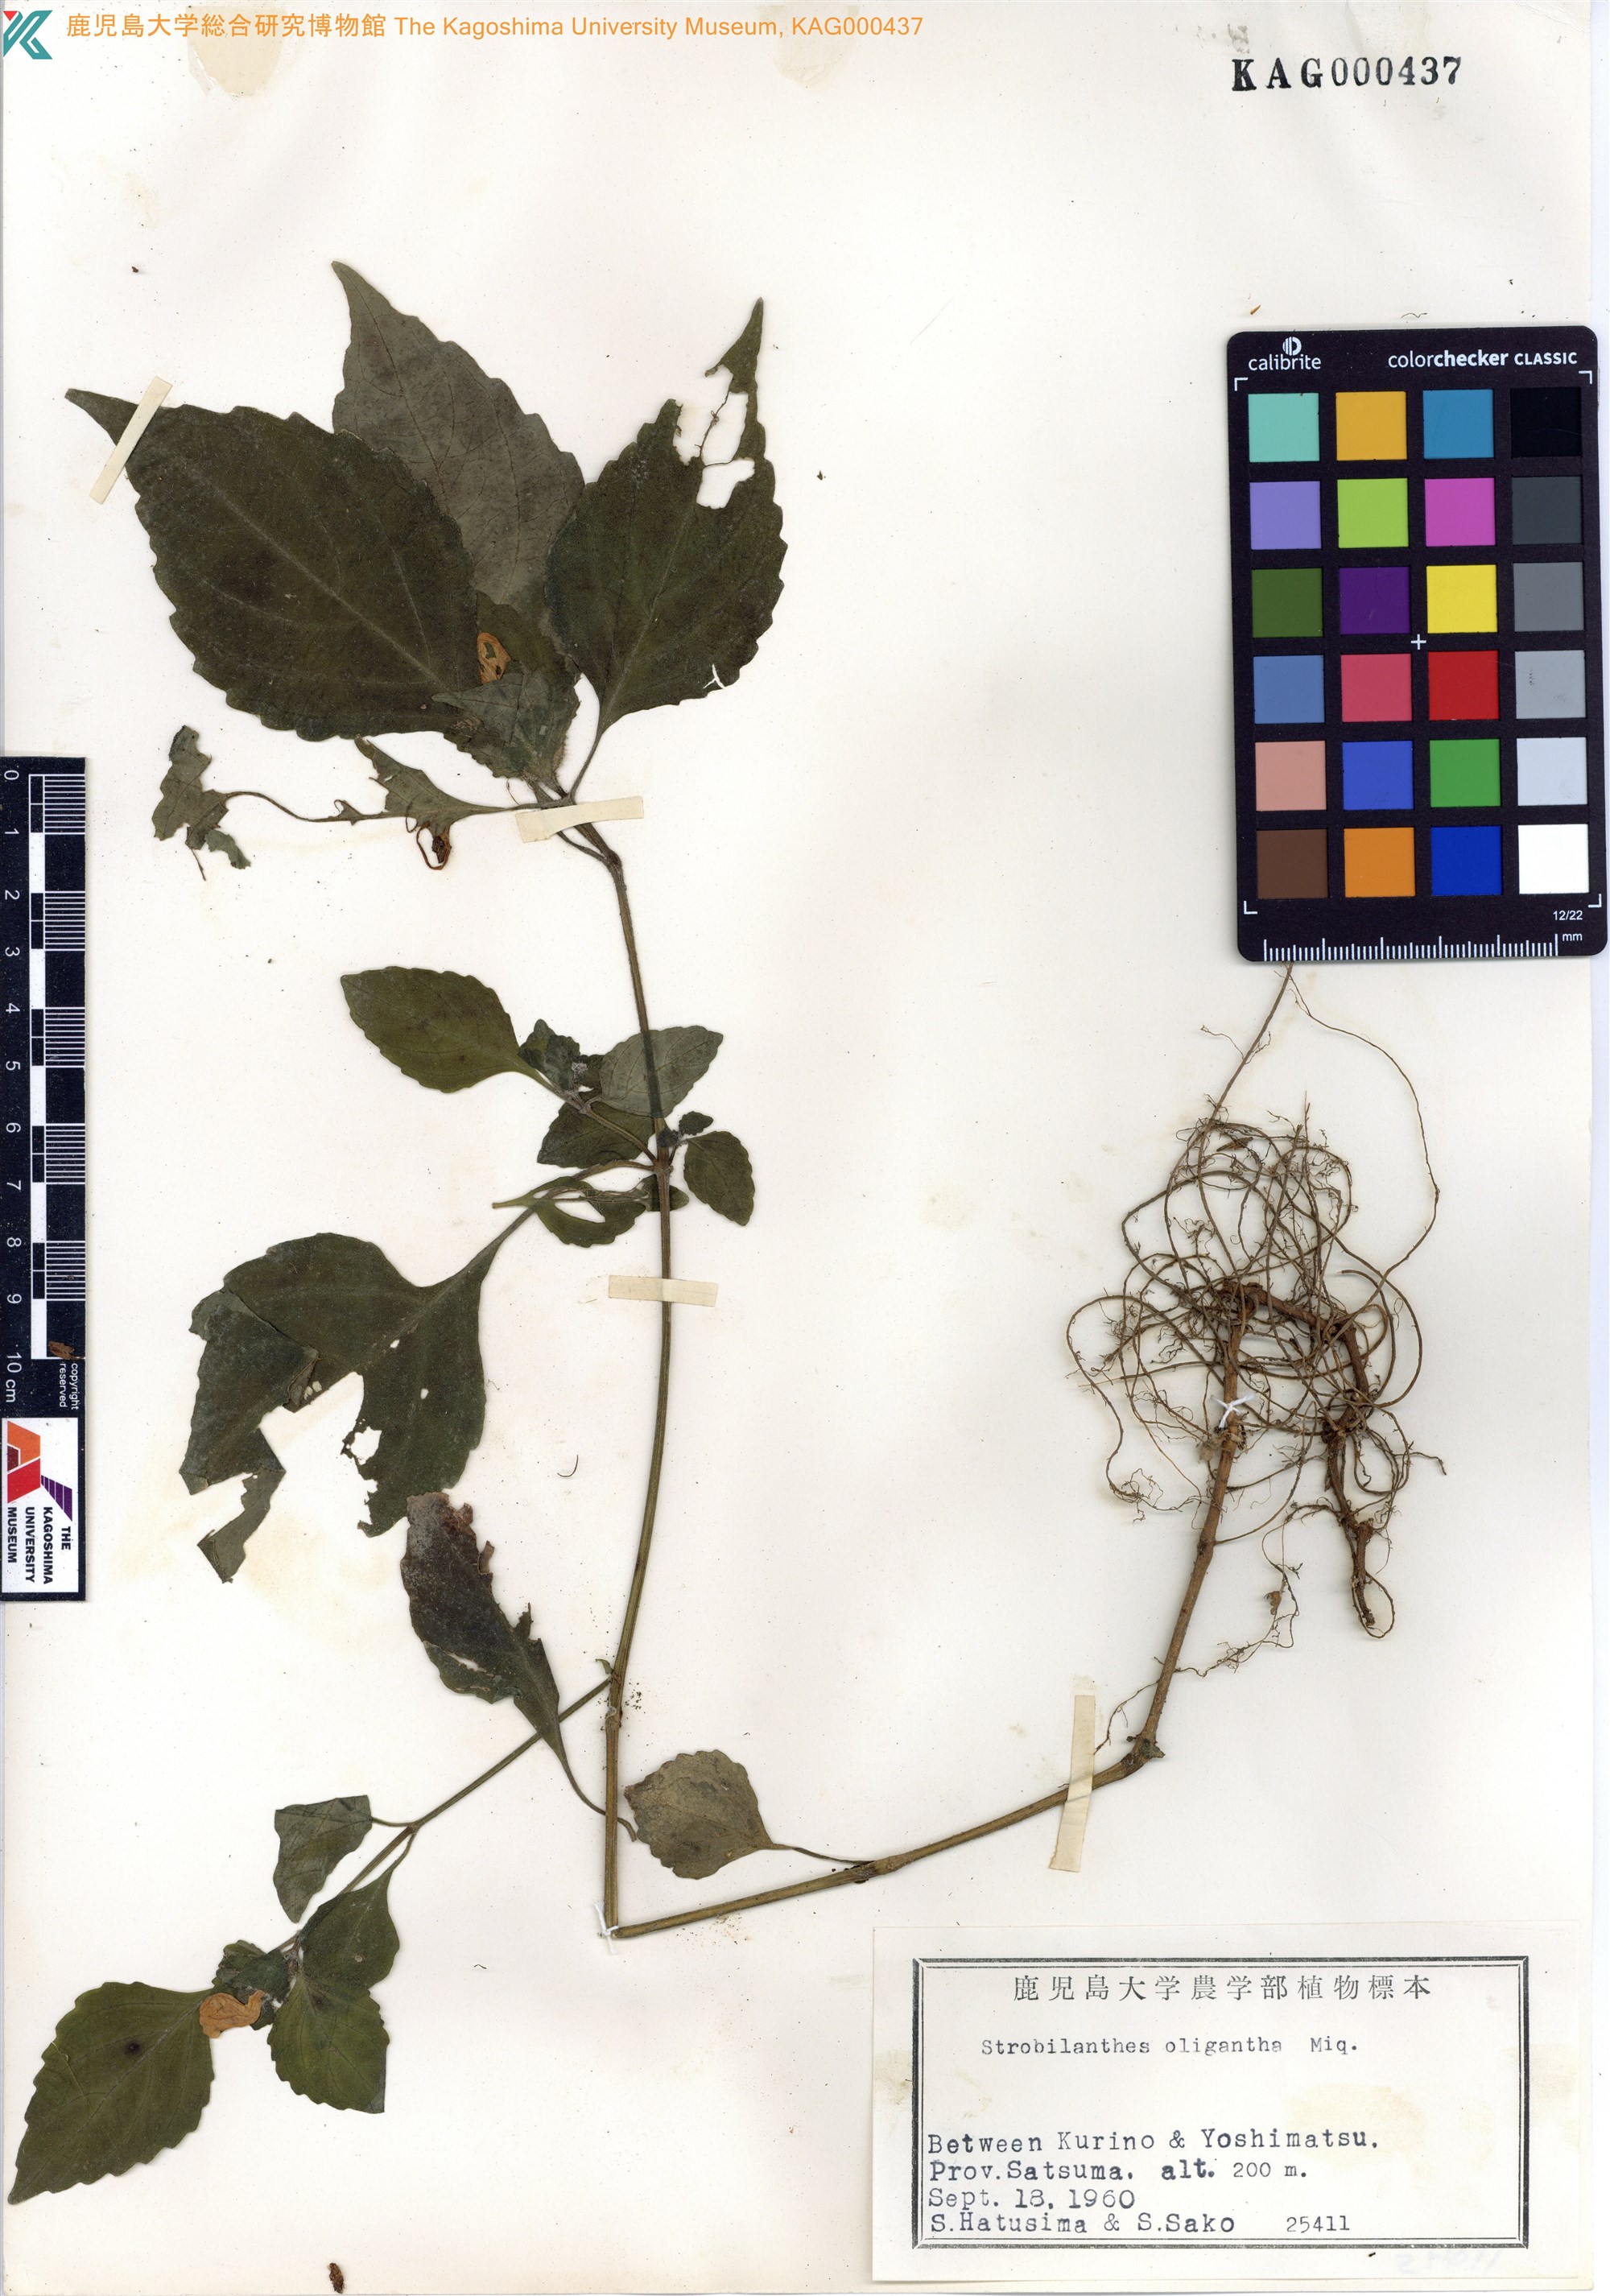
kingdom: Plantae
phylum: Tracheophyta
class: Magnoliopsida
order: Lamiales
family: Acanthaceae
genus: Strobilanthes
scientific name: Strobilanthes oligantha
